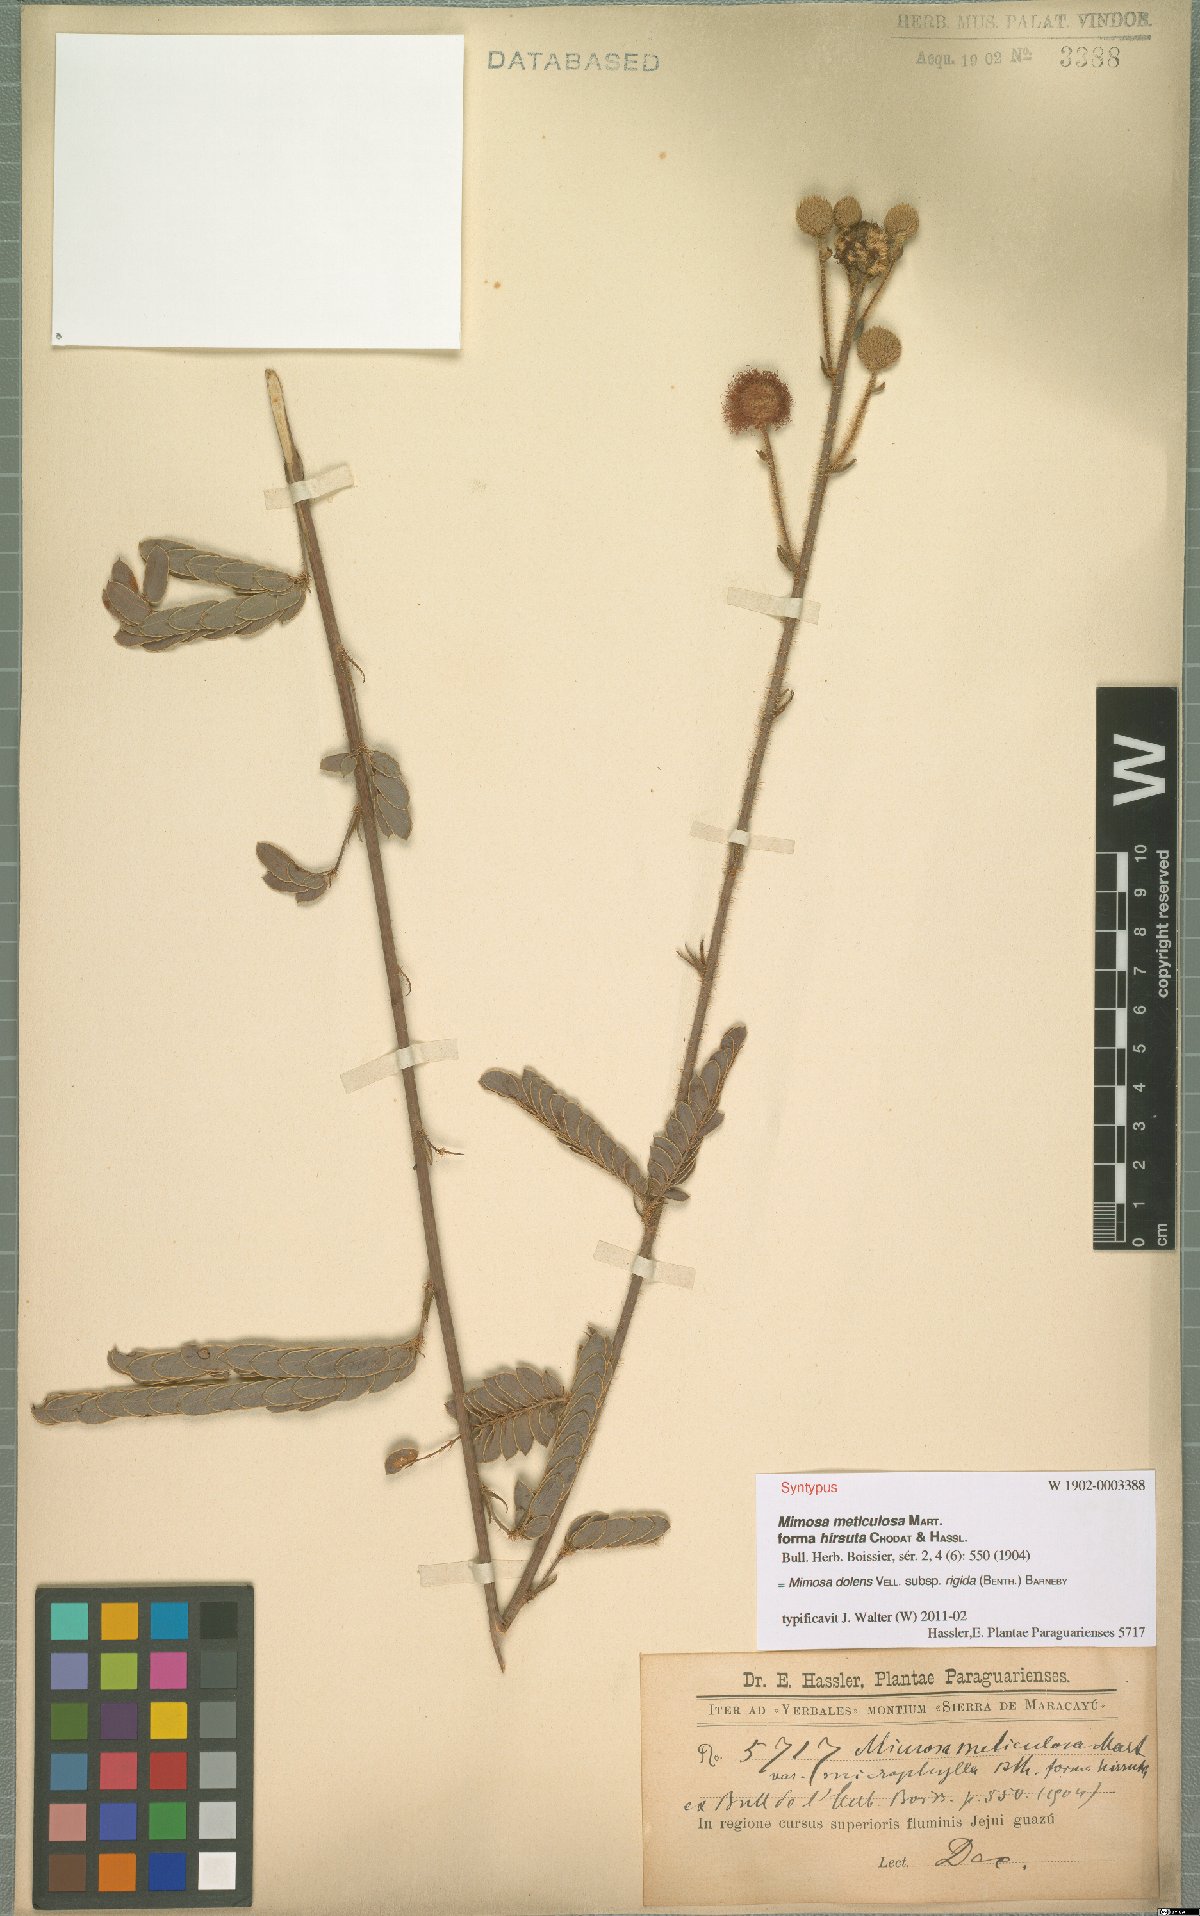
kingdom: Plantae
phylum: Tracheophyta
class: Magnoliopsida
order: Fabales
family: Fabaceae
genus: Mimosa
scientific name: Mimosa dolens
